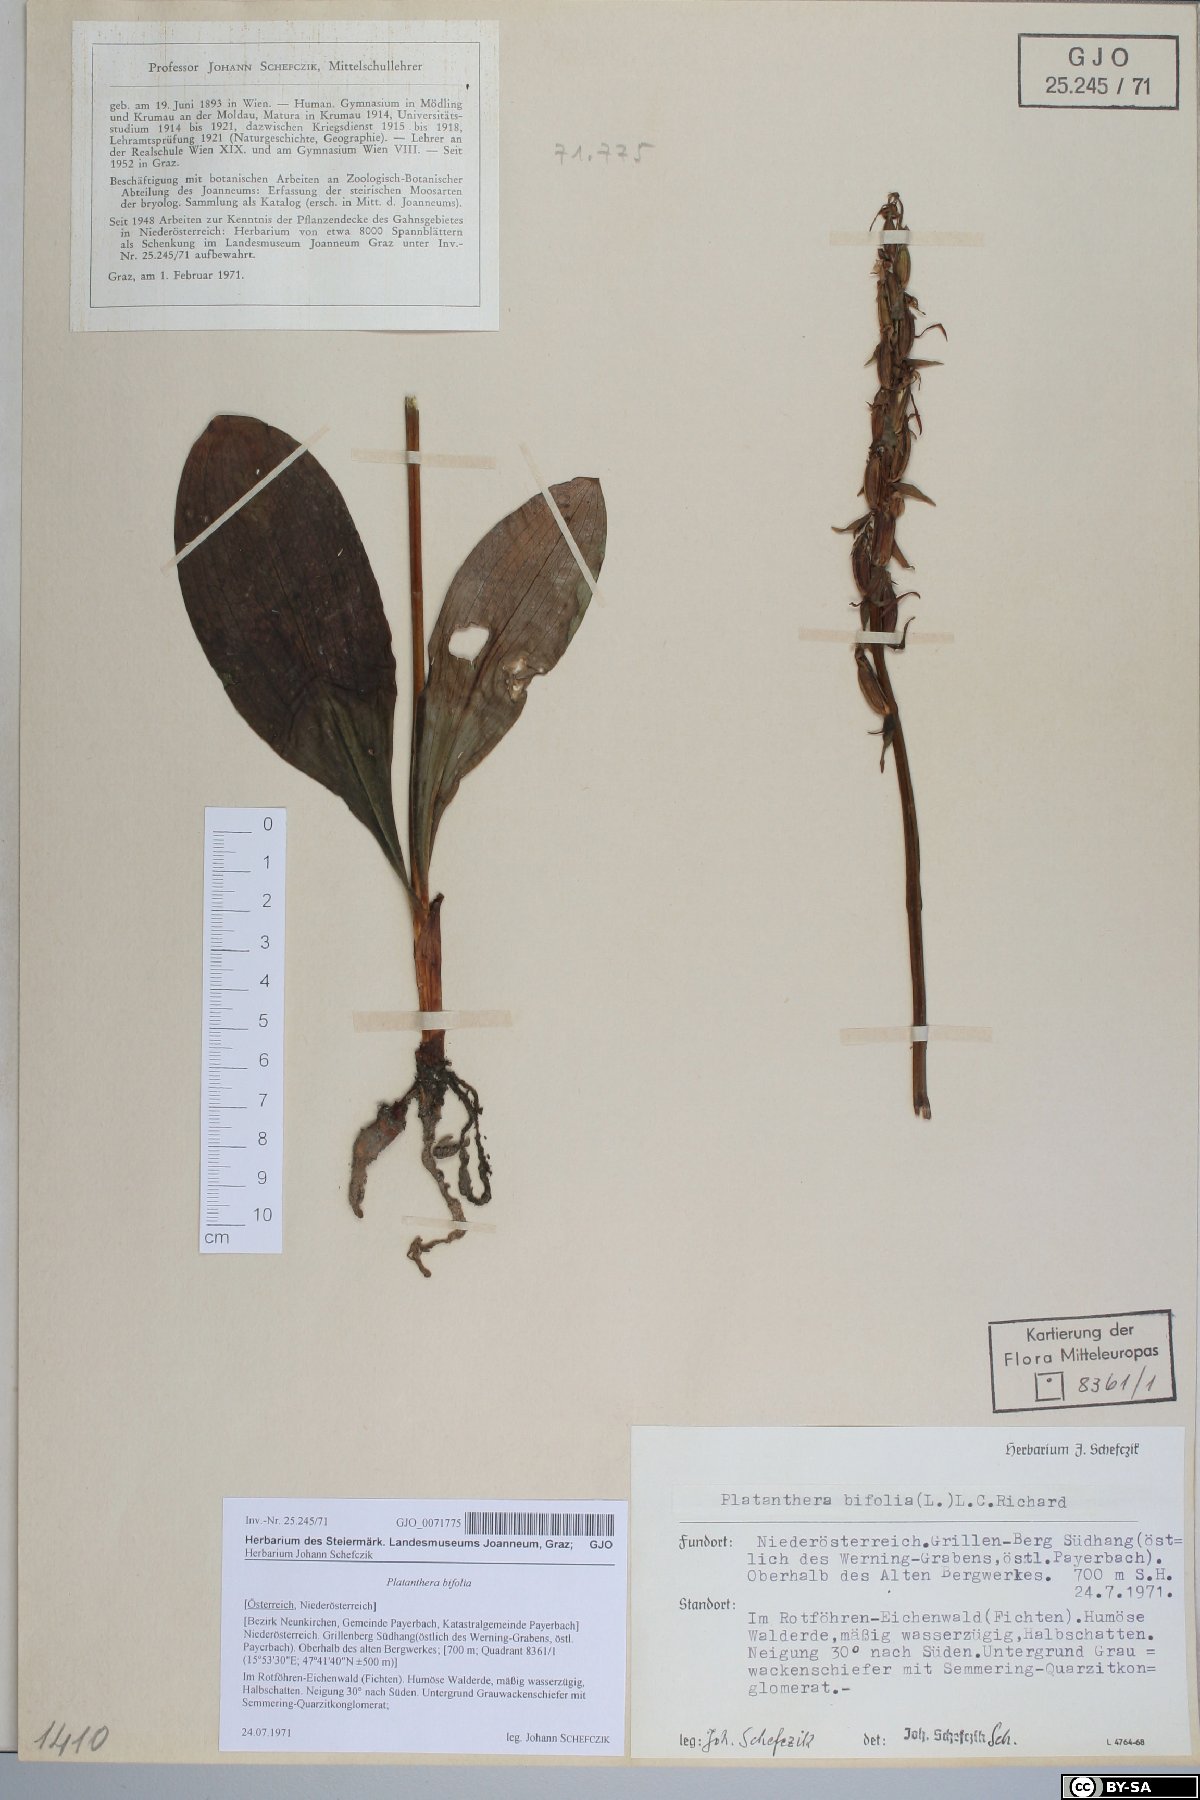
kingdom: Plantae
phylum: Tracheophyta
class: Liliopsida
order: Asparagales
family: Orchidaceae
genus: Platanthera
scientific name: Platanthera bifolia
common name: Lesser butterfly-orchid
